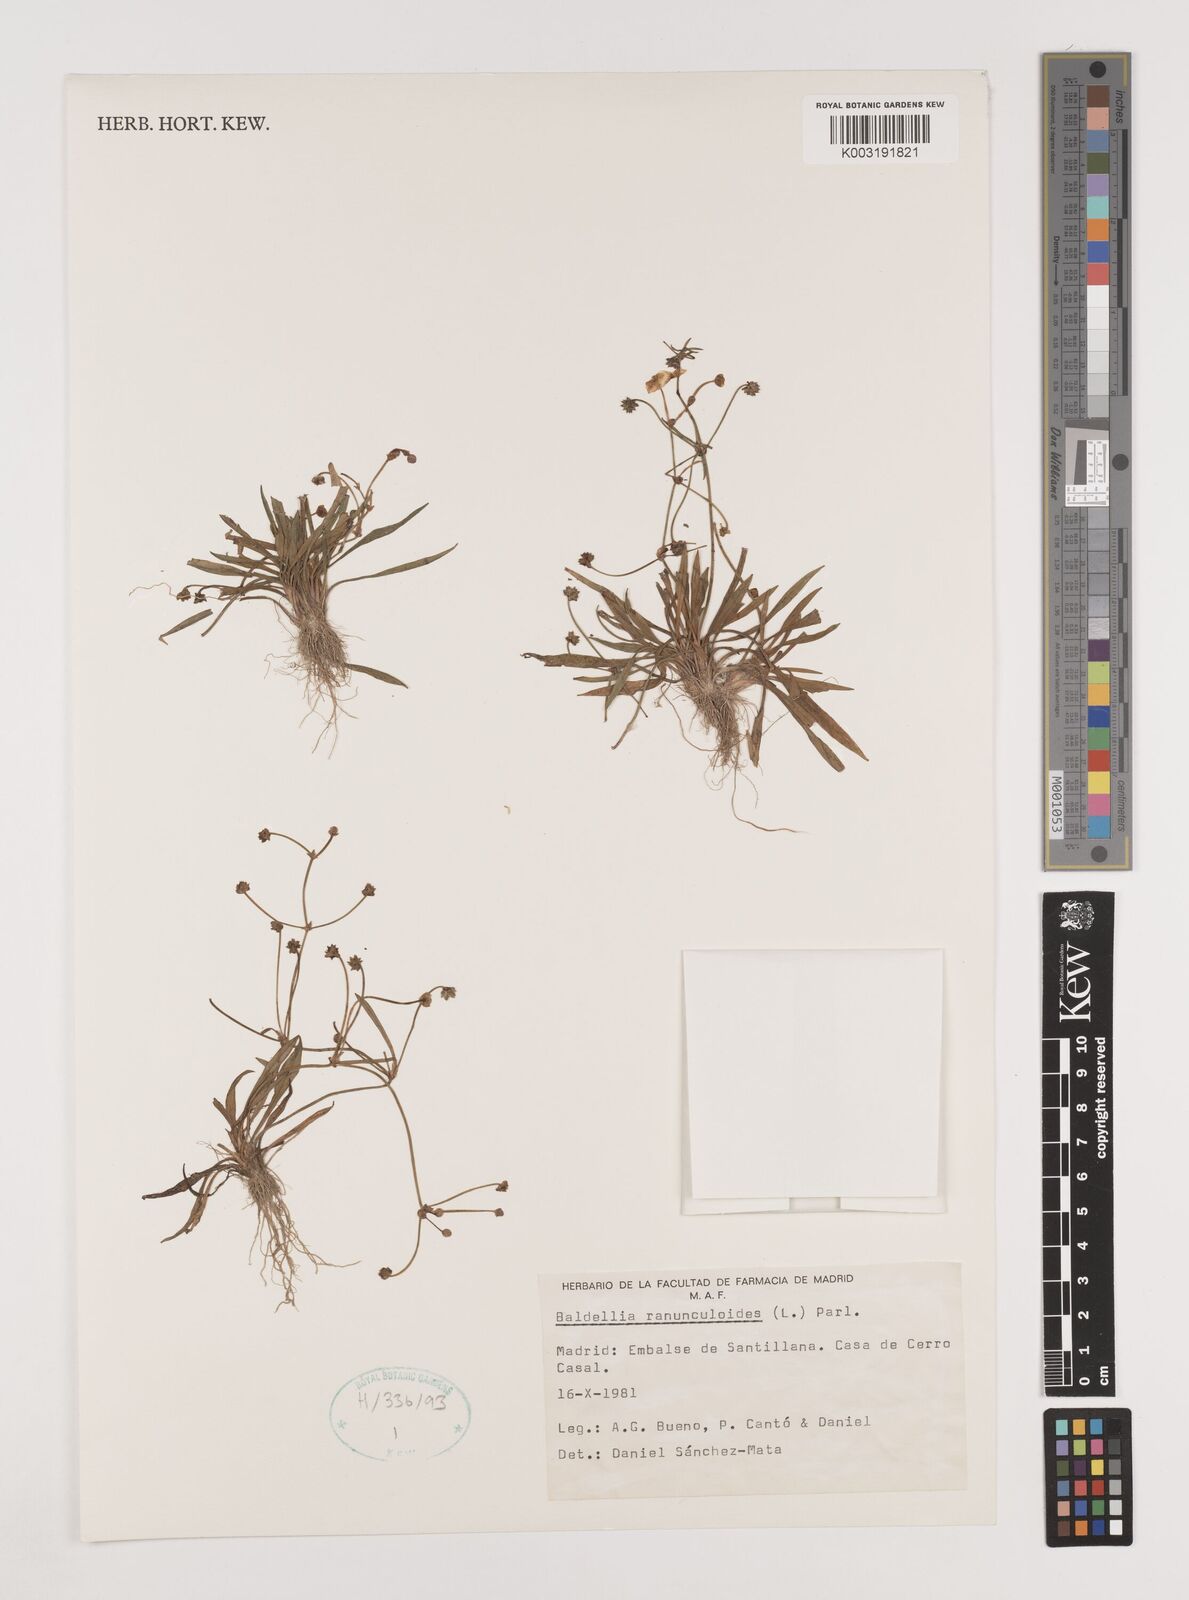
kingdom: Plantae
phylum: Tracheophyta
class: Liliopsida
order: Alismatales
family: Alismataceae
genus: Baldellia
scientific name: Baldellia ranunculoides
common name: Lesser water-plantain
